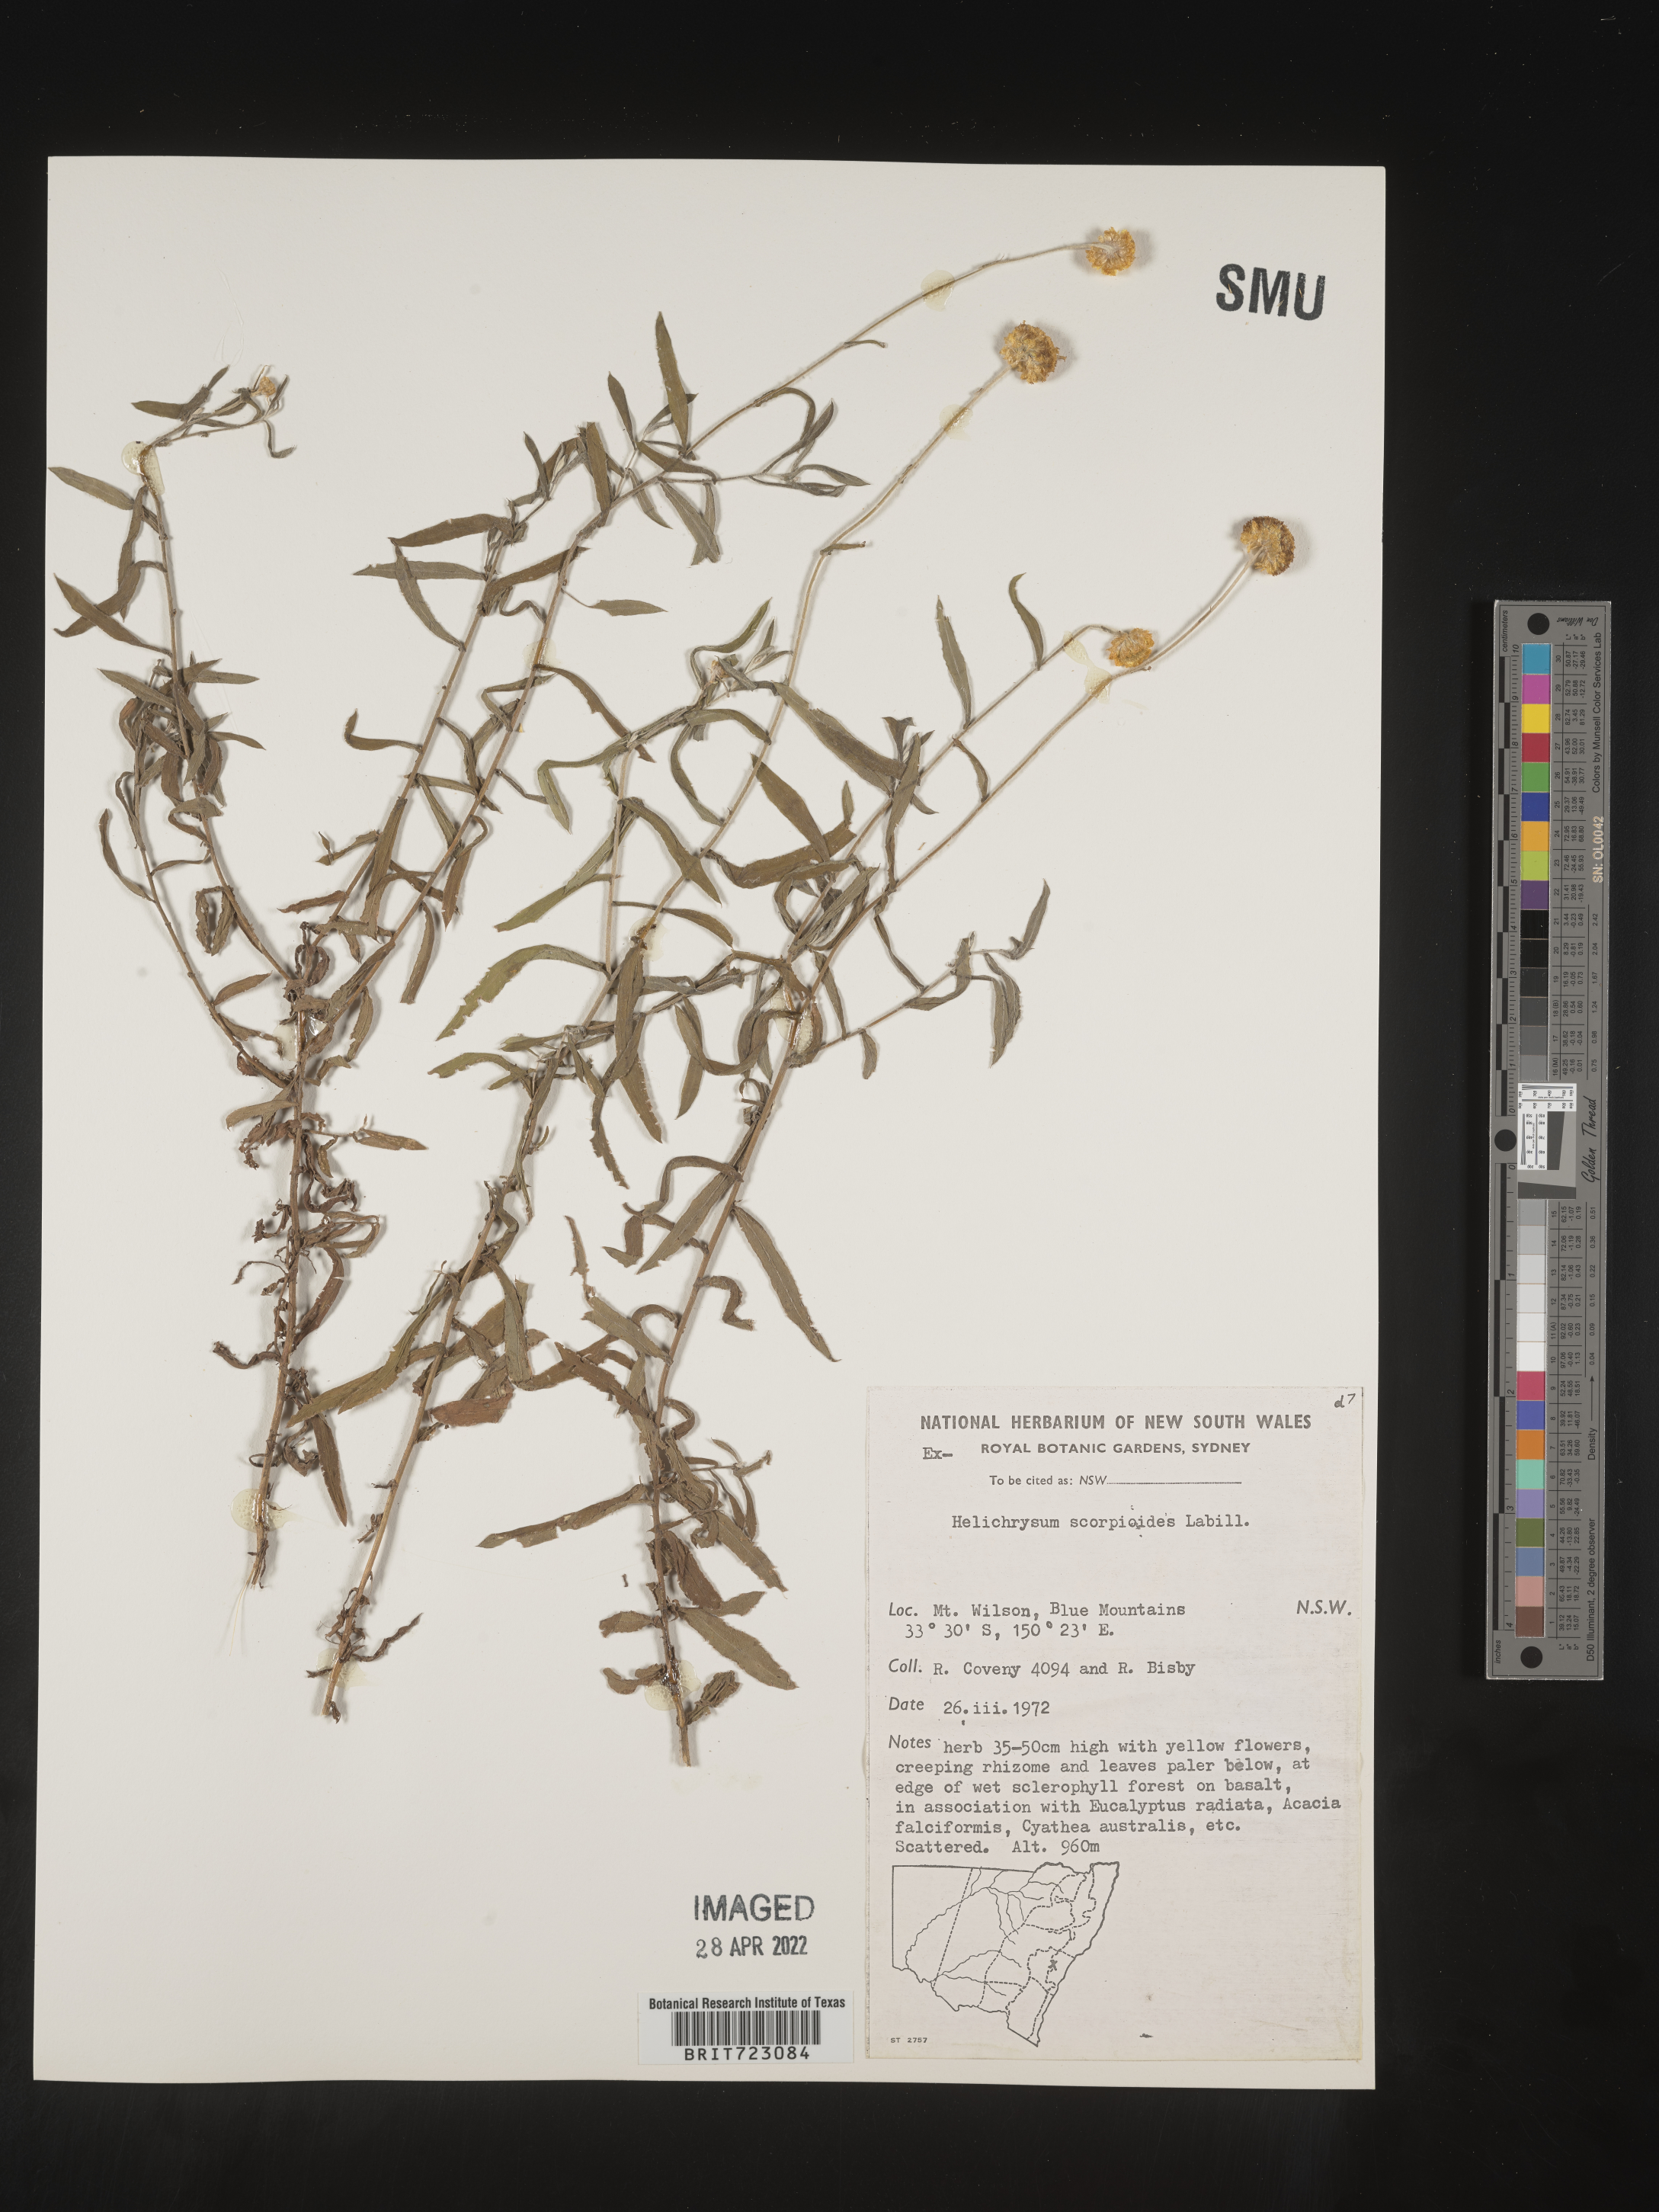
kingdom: Plantae
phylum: Tracheophyta
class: Magnoliopsida
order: Asterales
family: Asteraceae
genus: Helichrysum
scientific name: Helichrysum
